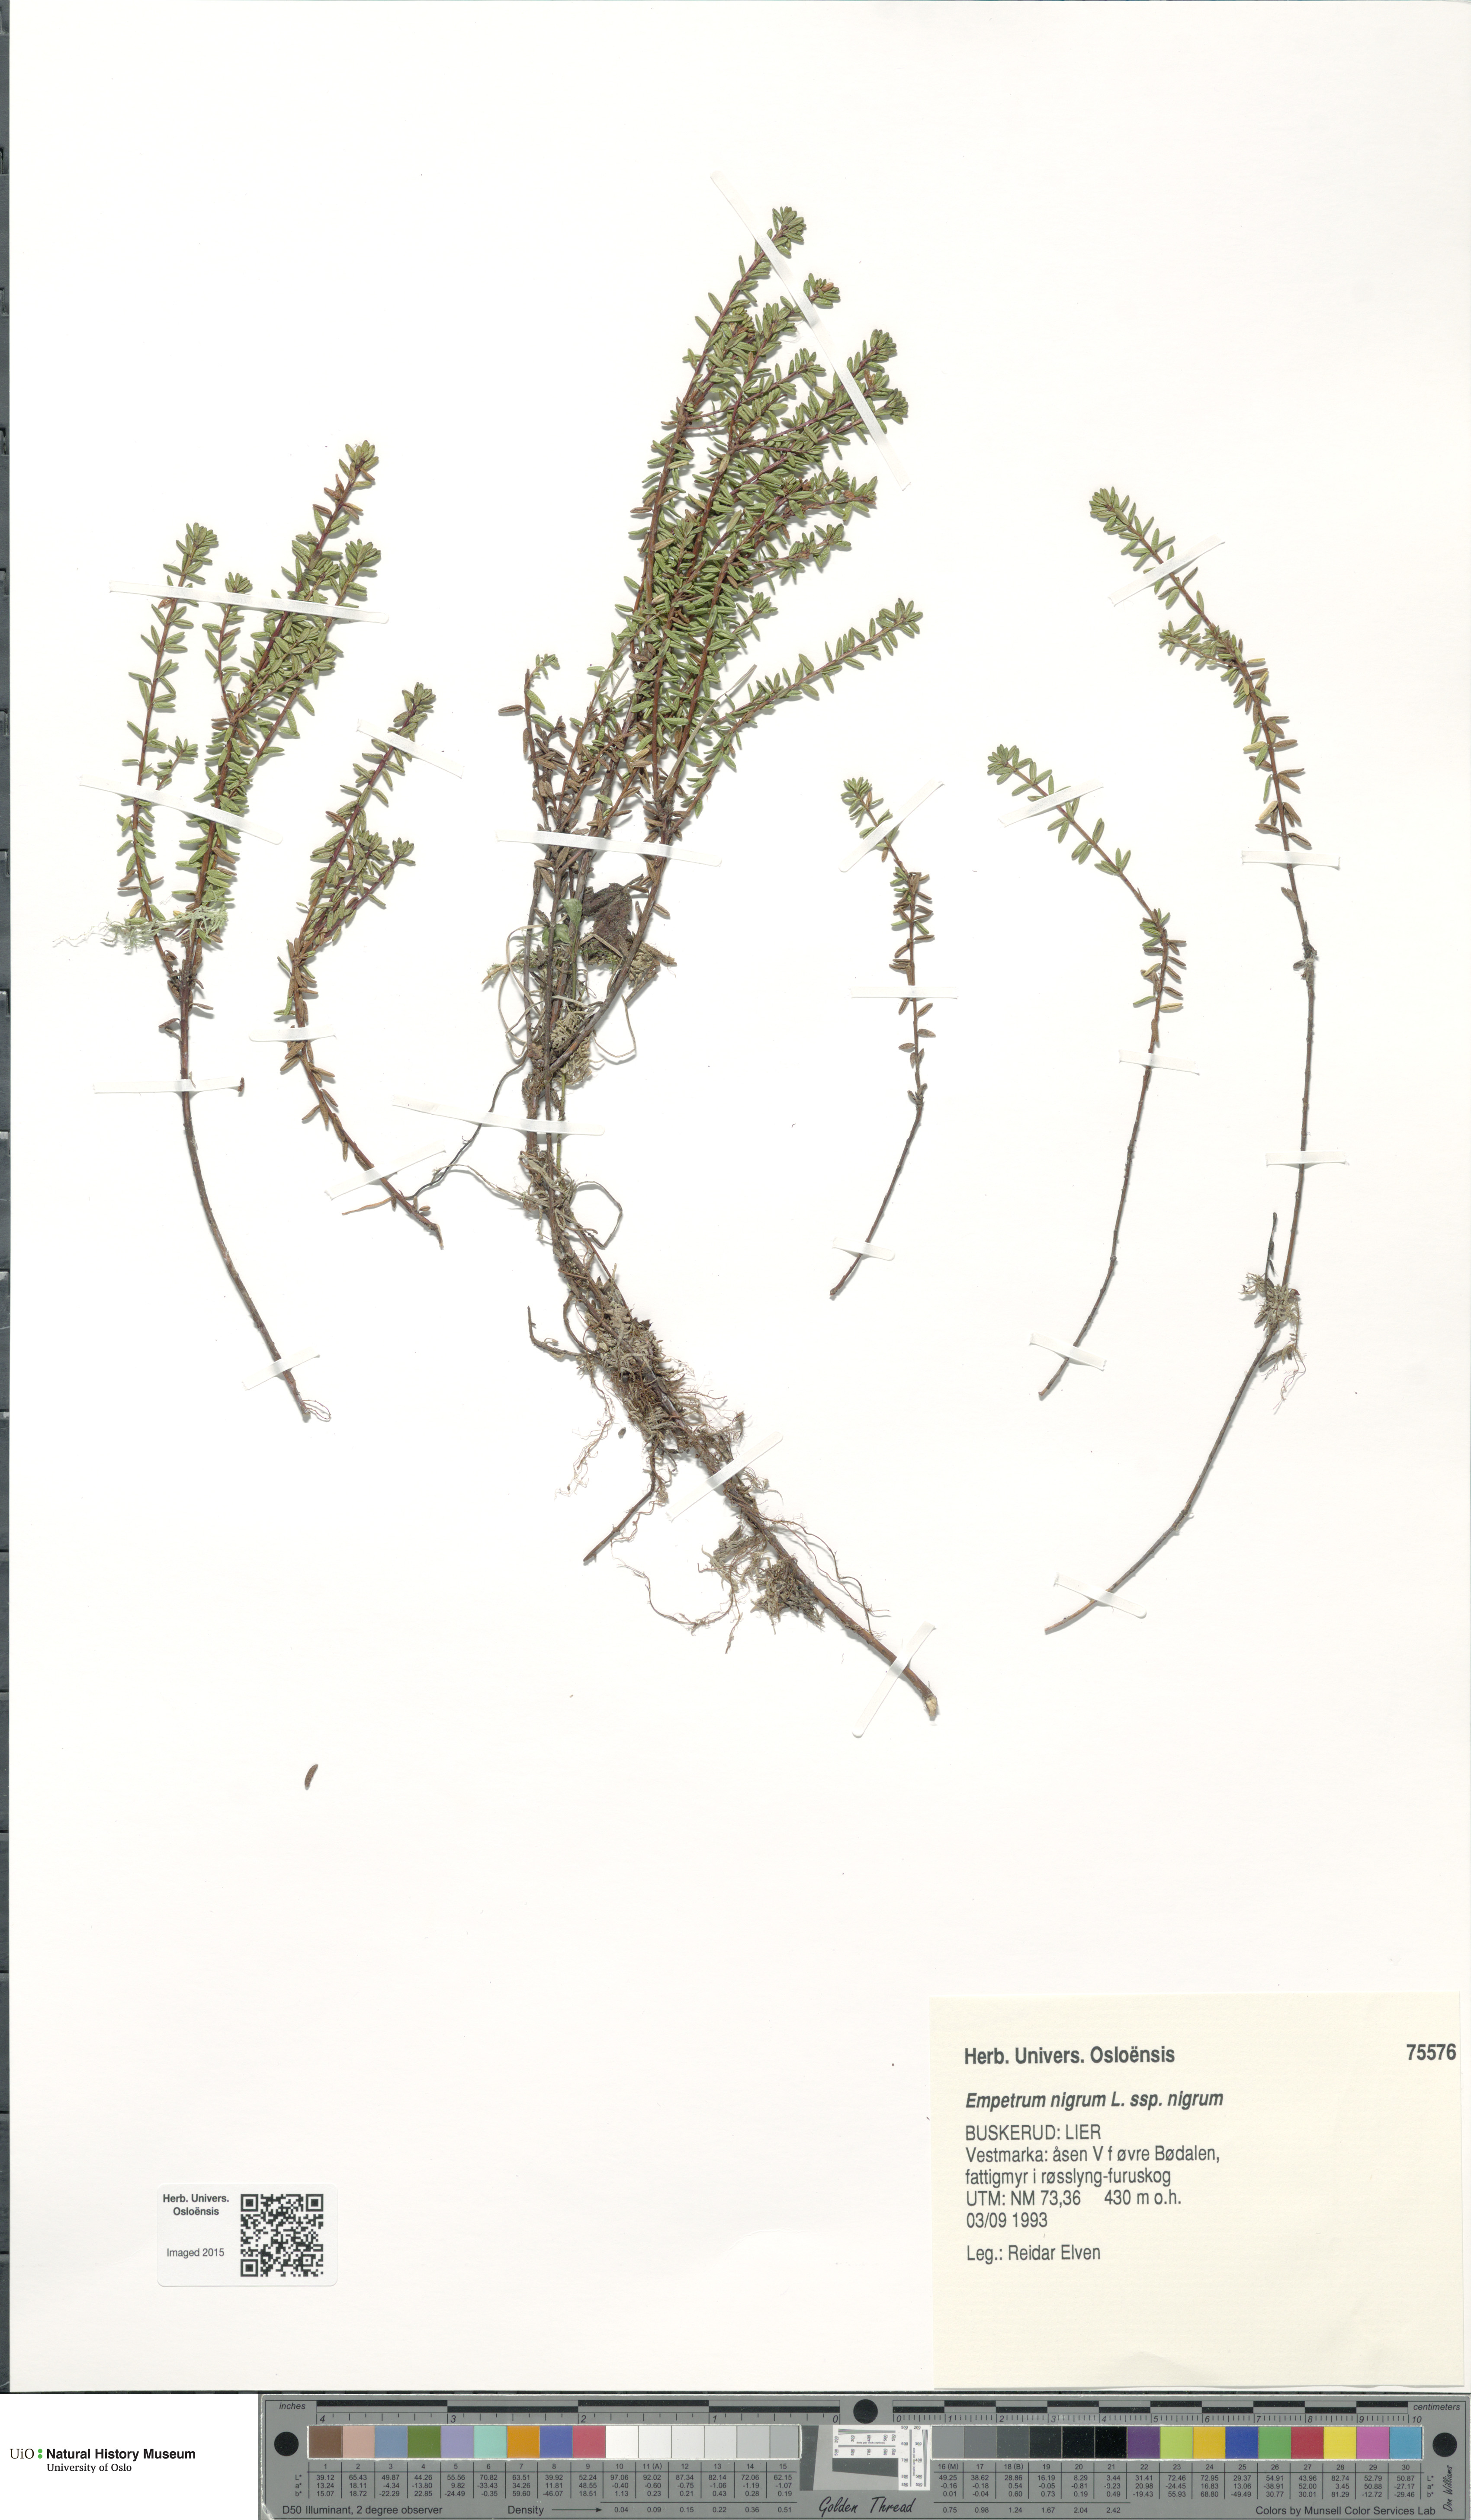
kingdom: Plantae
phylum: Tracheophyta
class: Magnoliopsida
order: Ericales
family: Ericaceae
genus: Empetrum
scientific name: Empetrum nigrum
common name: Black crowberry
